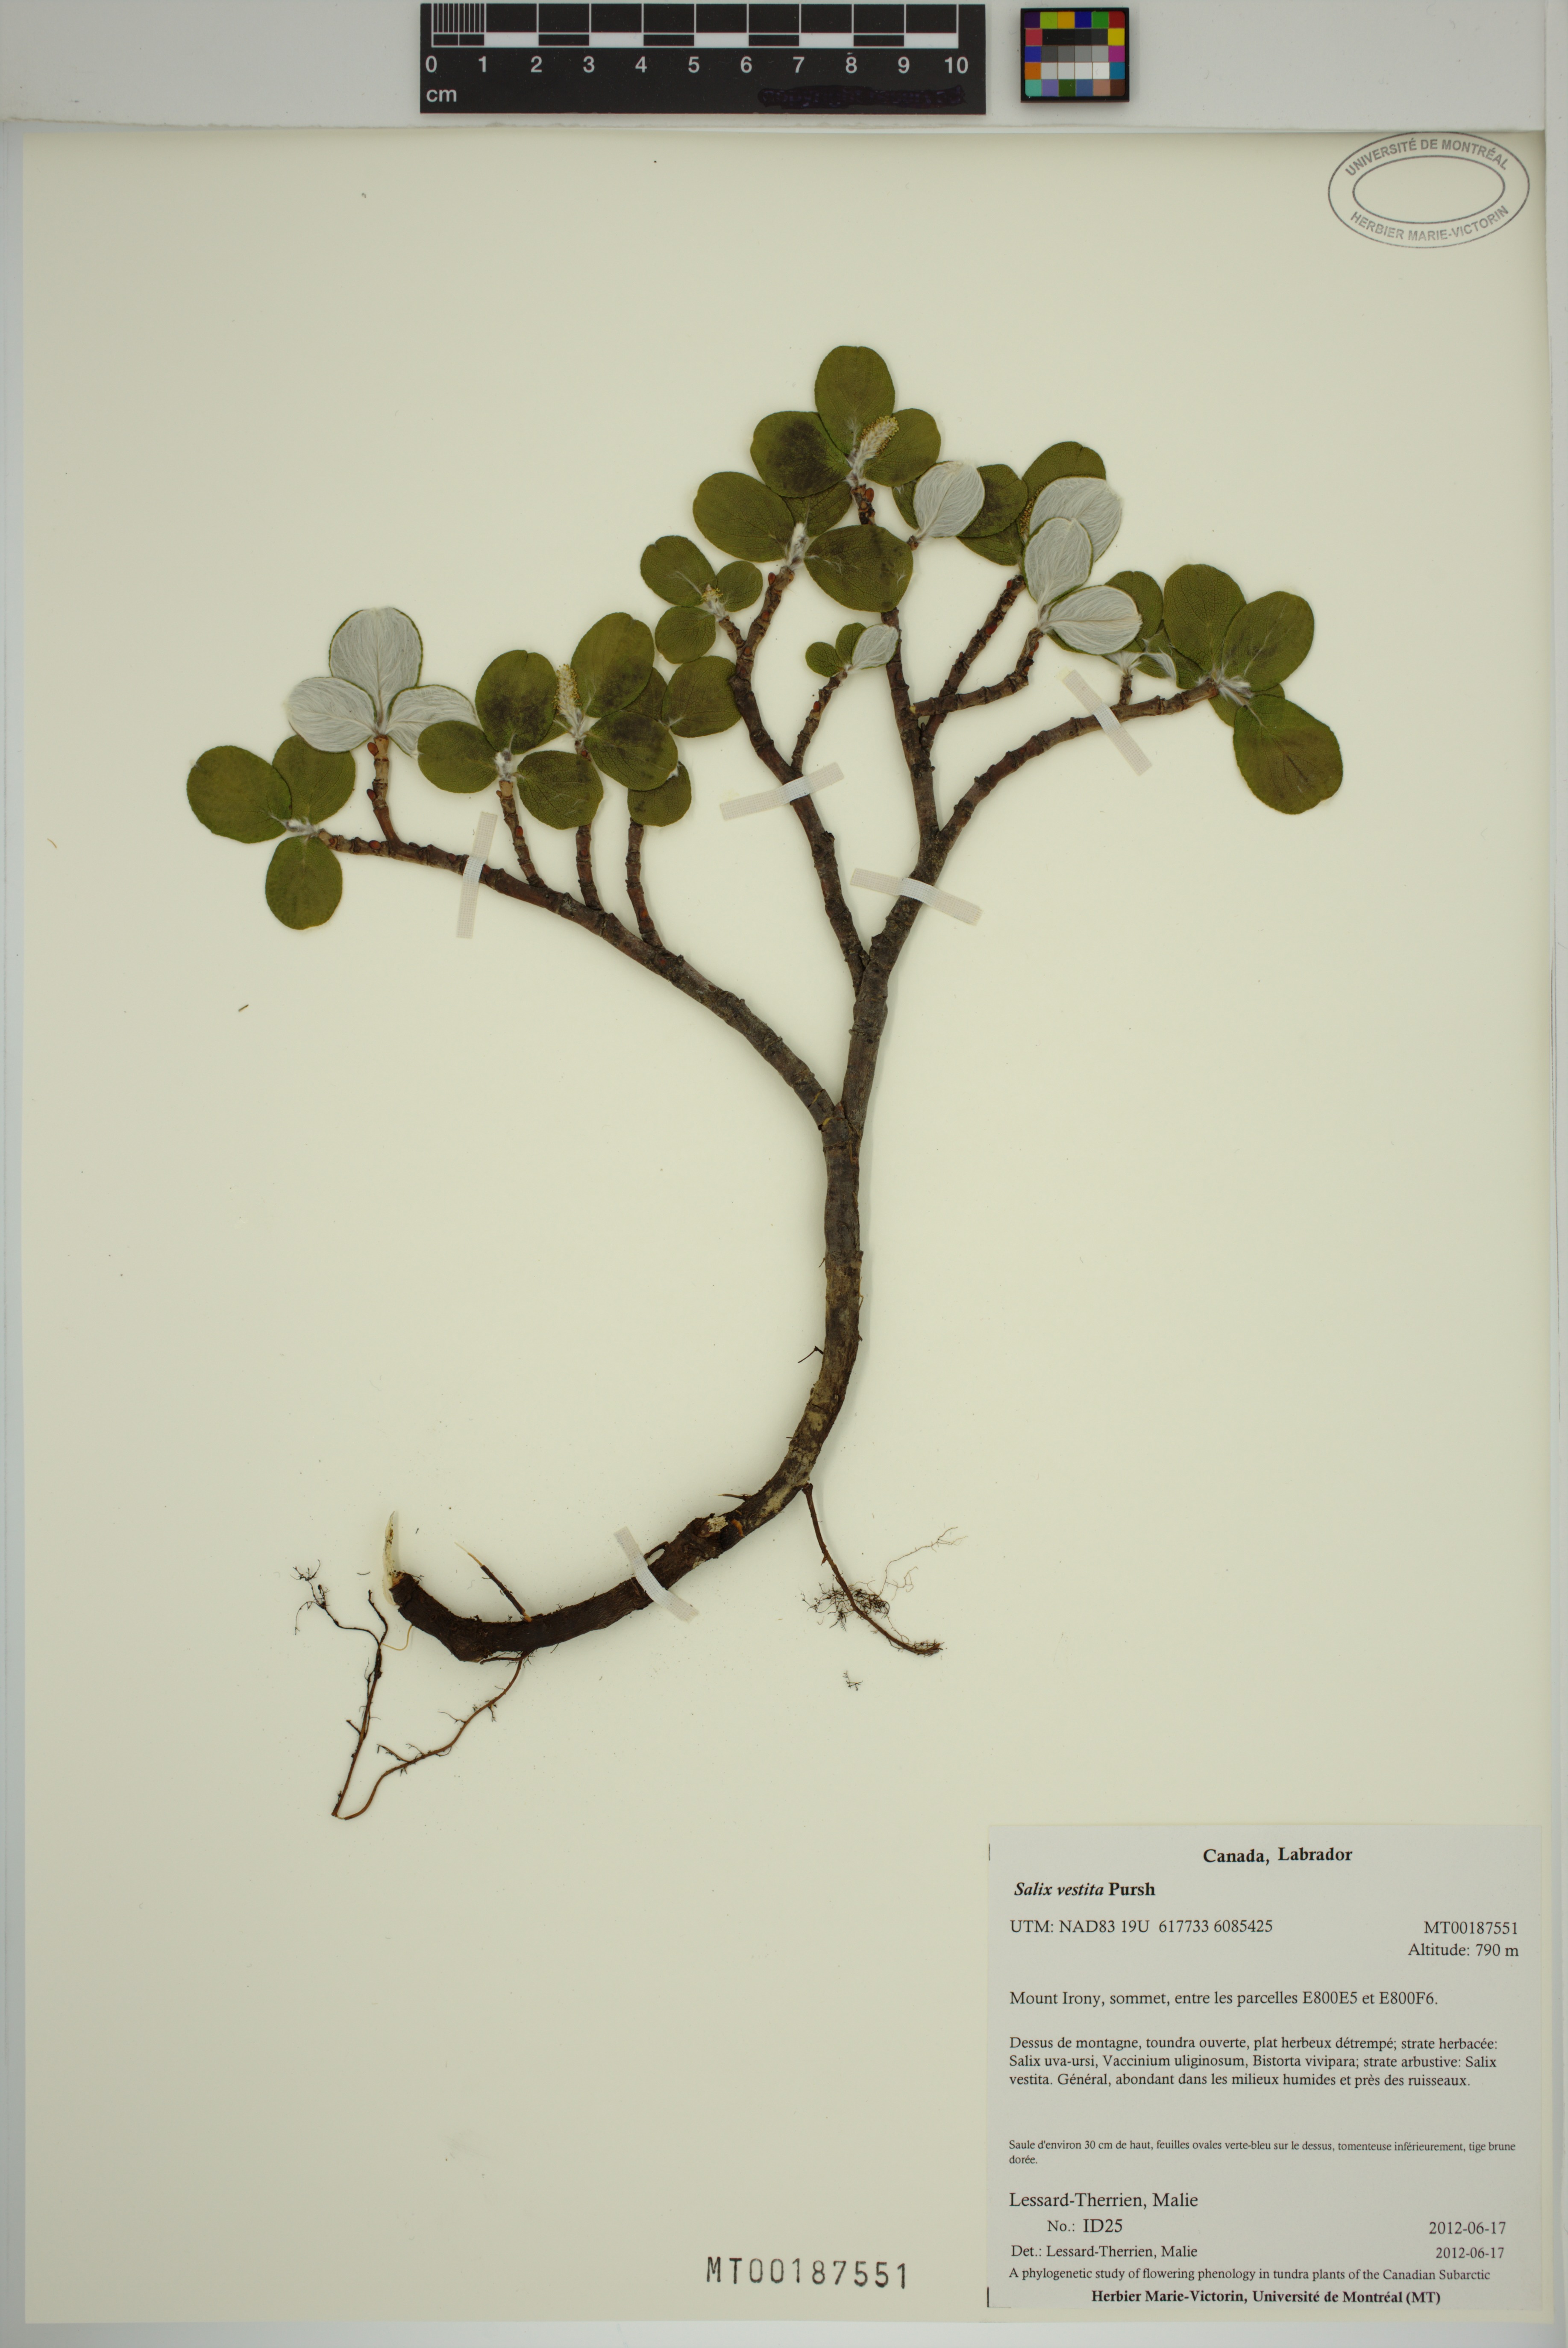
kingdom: Plantae
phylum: Tracheophyta
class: Magnoliopsida
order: Malpighiales
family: Salicaceae
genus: Salix
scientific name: Salix vestita
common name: Hairy willow
